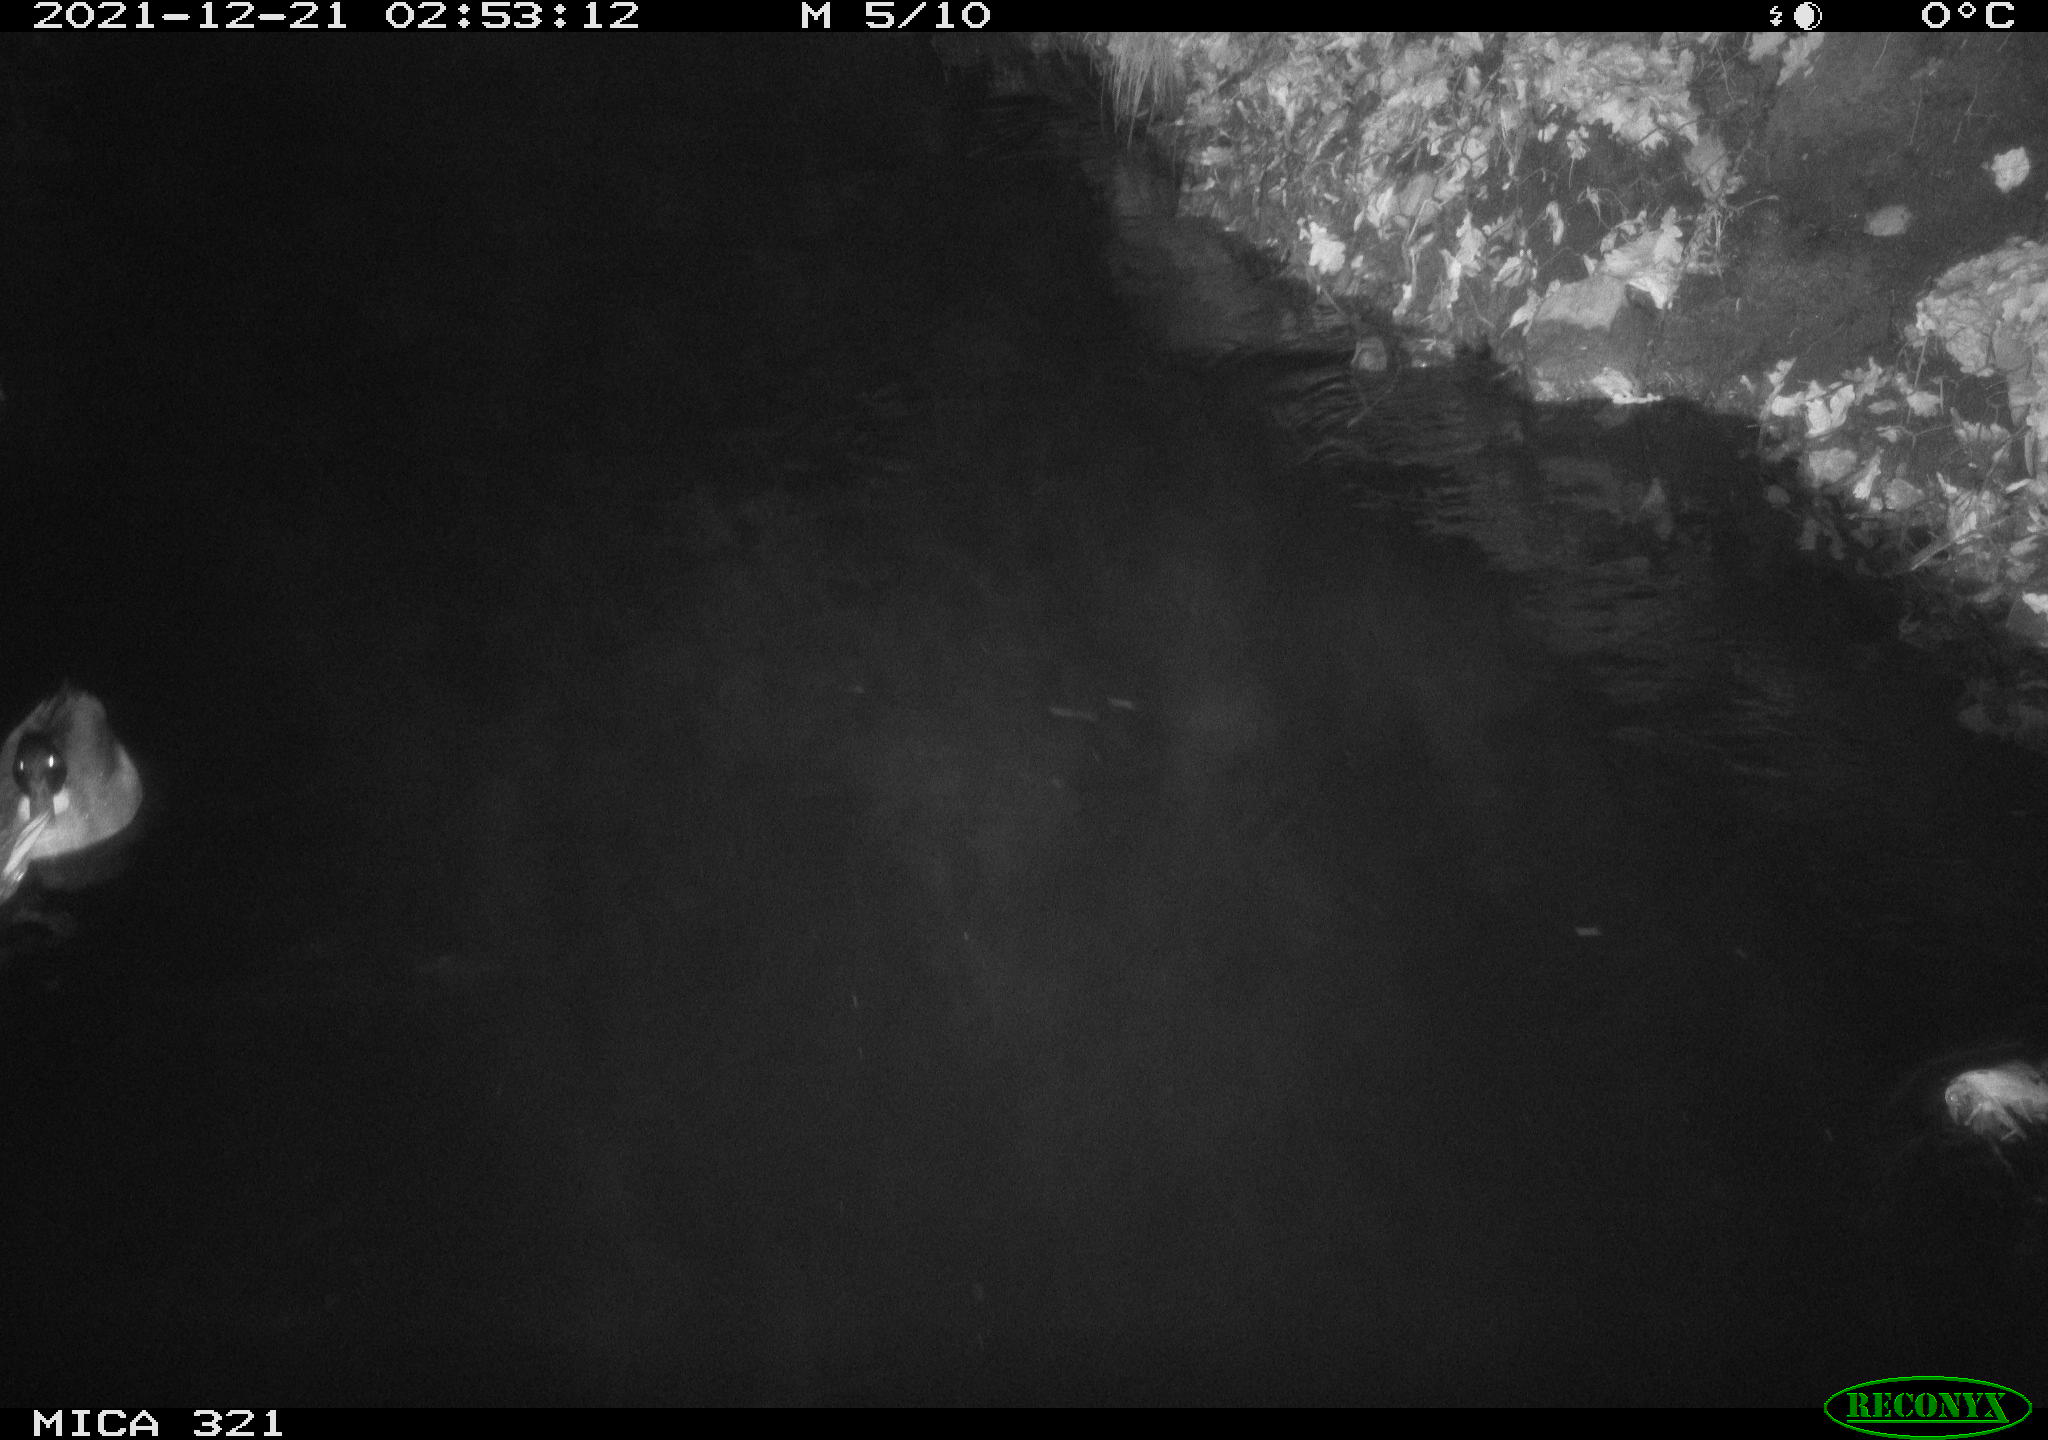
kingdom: Animalia
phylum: Chordata
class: Aves
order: Anseriformes
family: Anatidae
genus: Anas
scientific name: Anas
